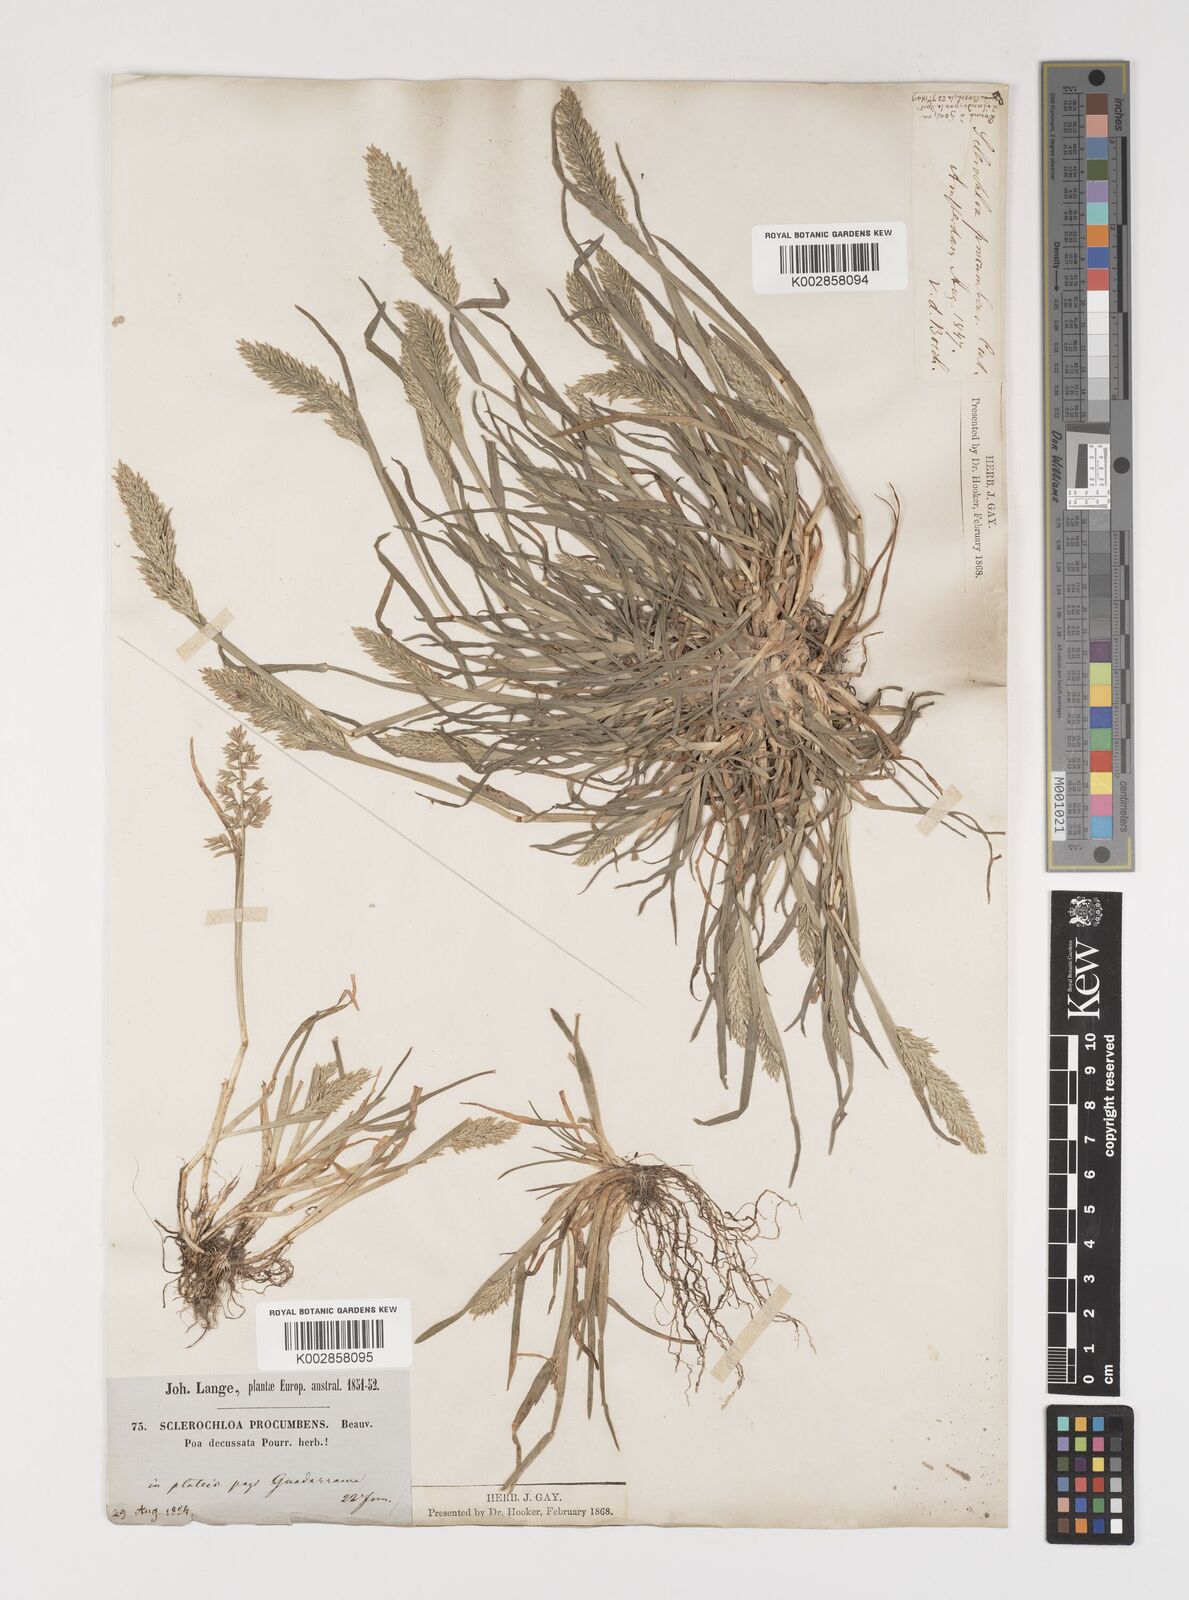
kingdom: Plantae
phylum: Tracheophyta
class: Liliopsida
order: Poales
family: Poaceae
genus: Puccinellia
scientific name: Puccinellia rupestris
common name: Stiff saltmarsh-grass
